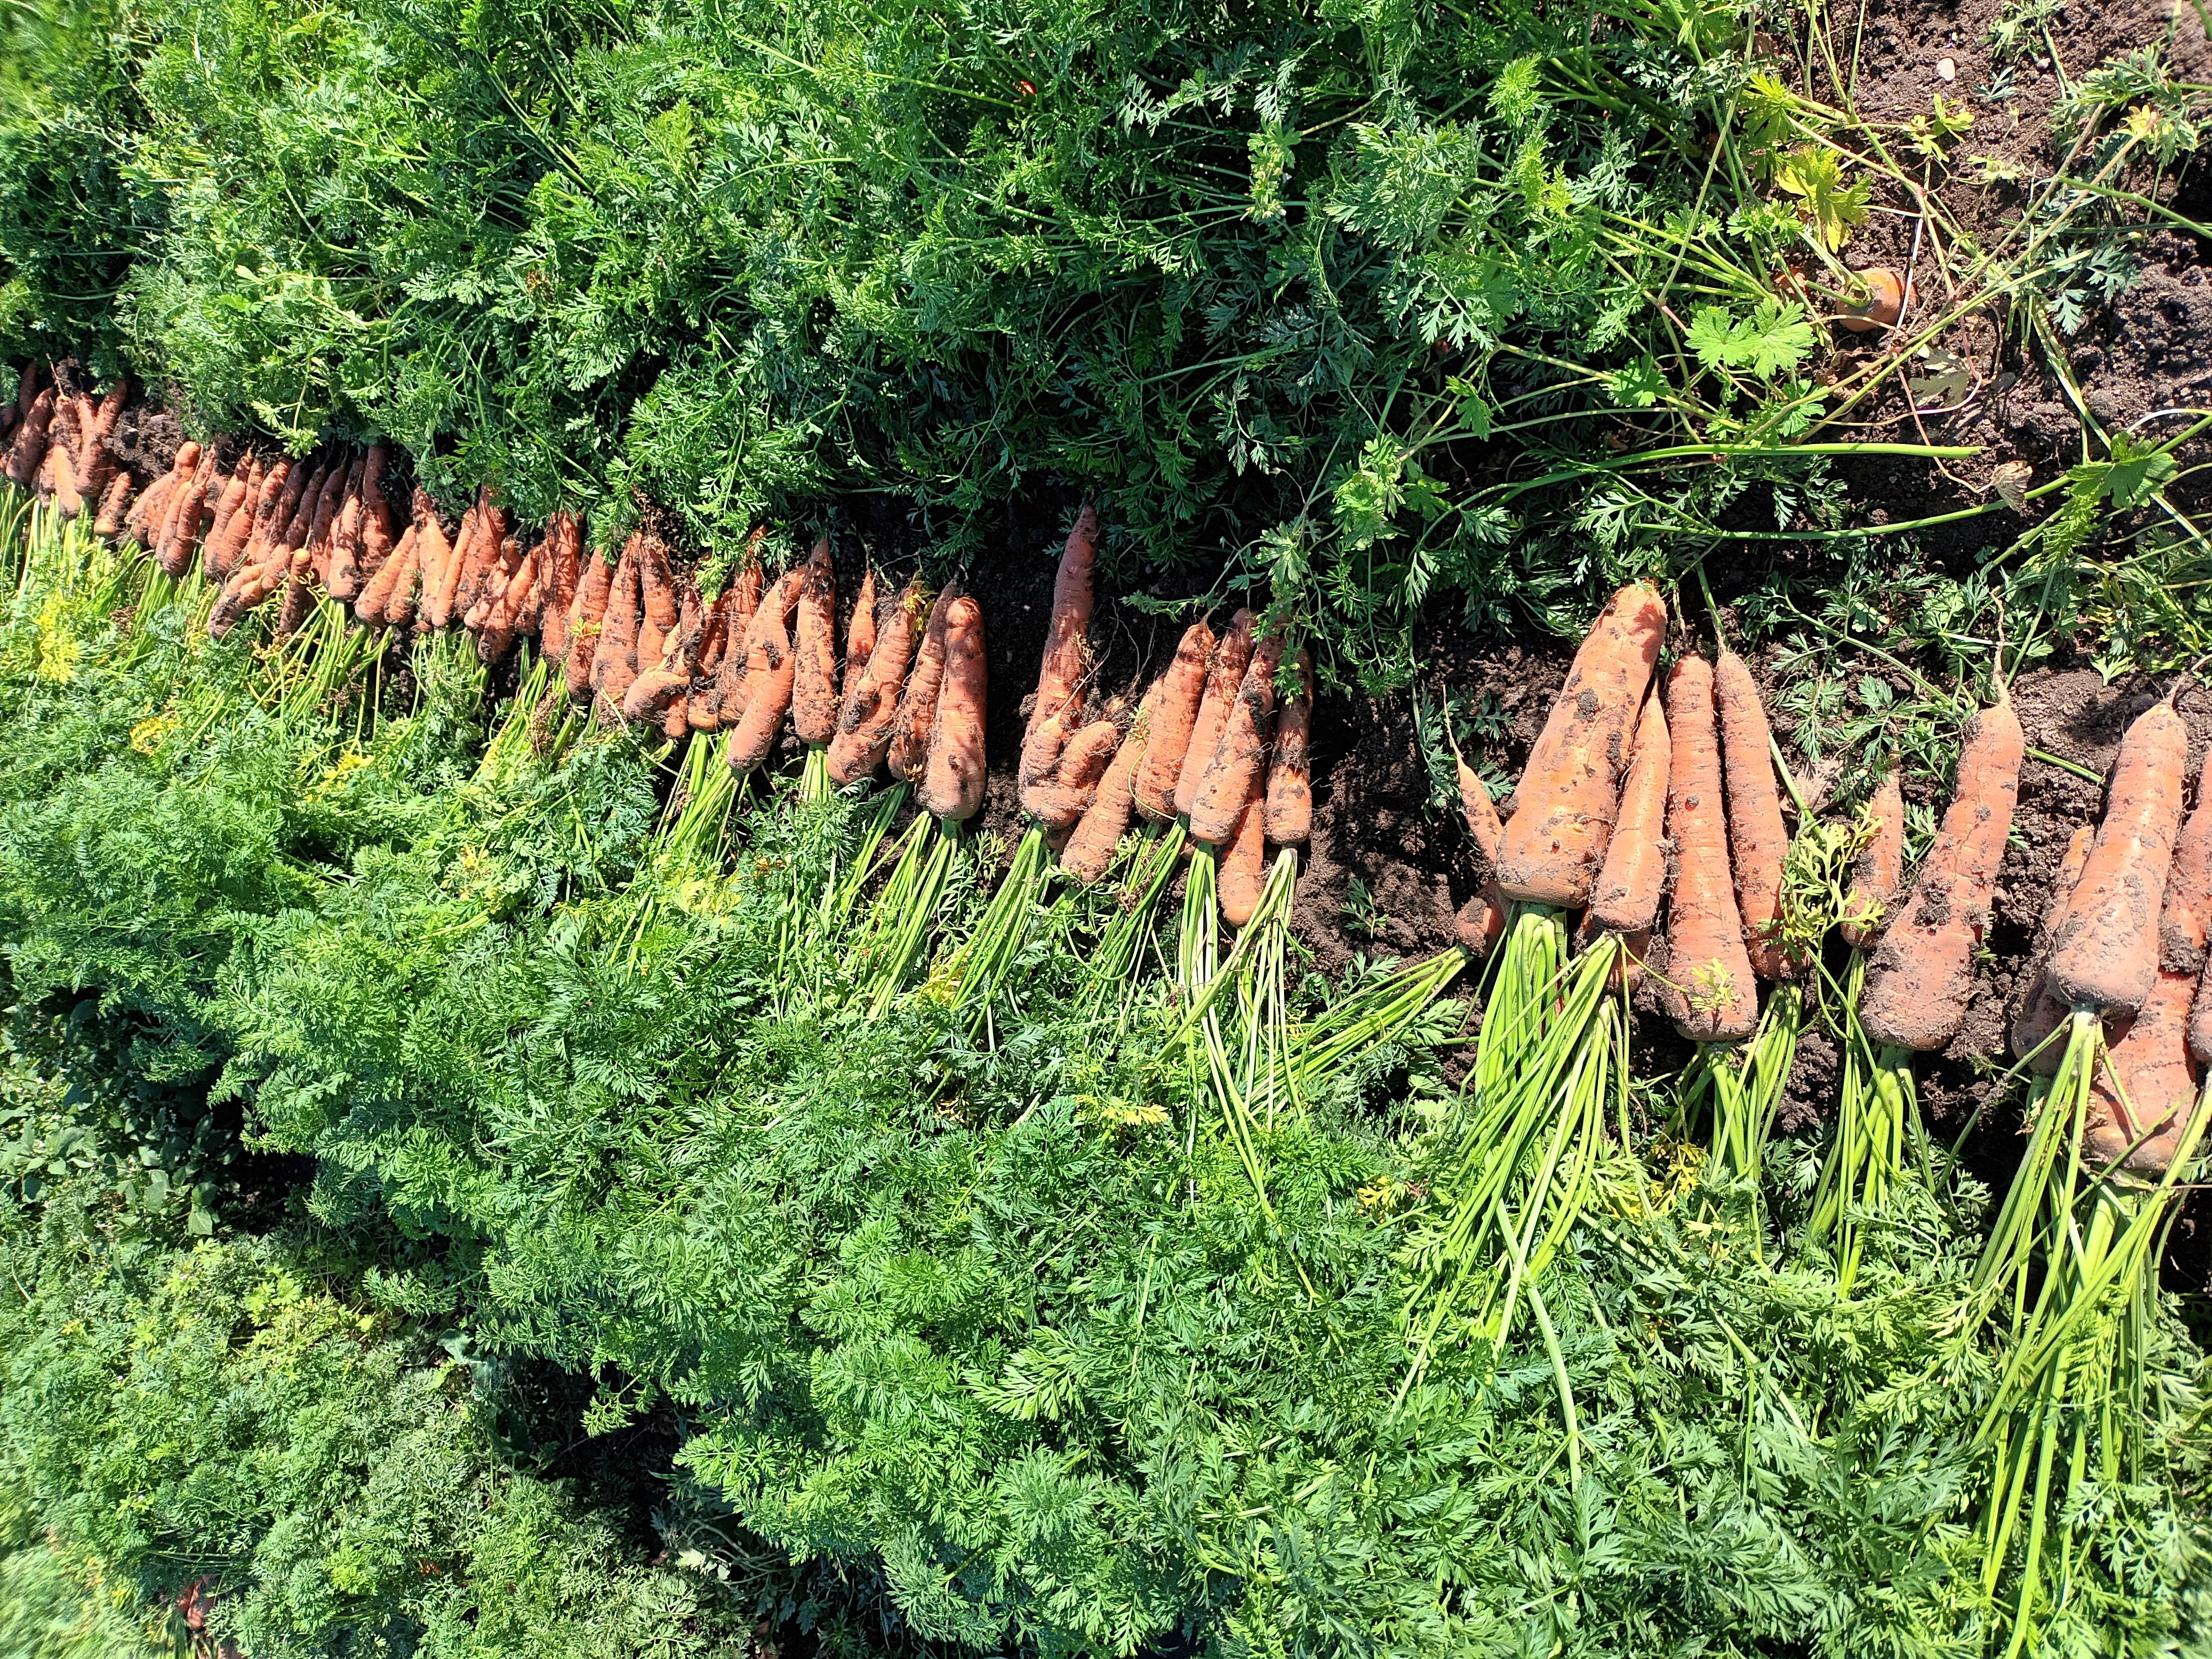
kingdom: Plantae
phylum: Tracheophyta
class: Magnoliopsida
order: Apiales
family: Apiaceae
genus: Daucus
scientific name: Daucus carota
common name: Wild carrot
